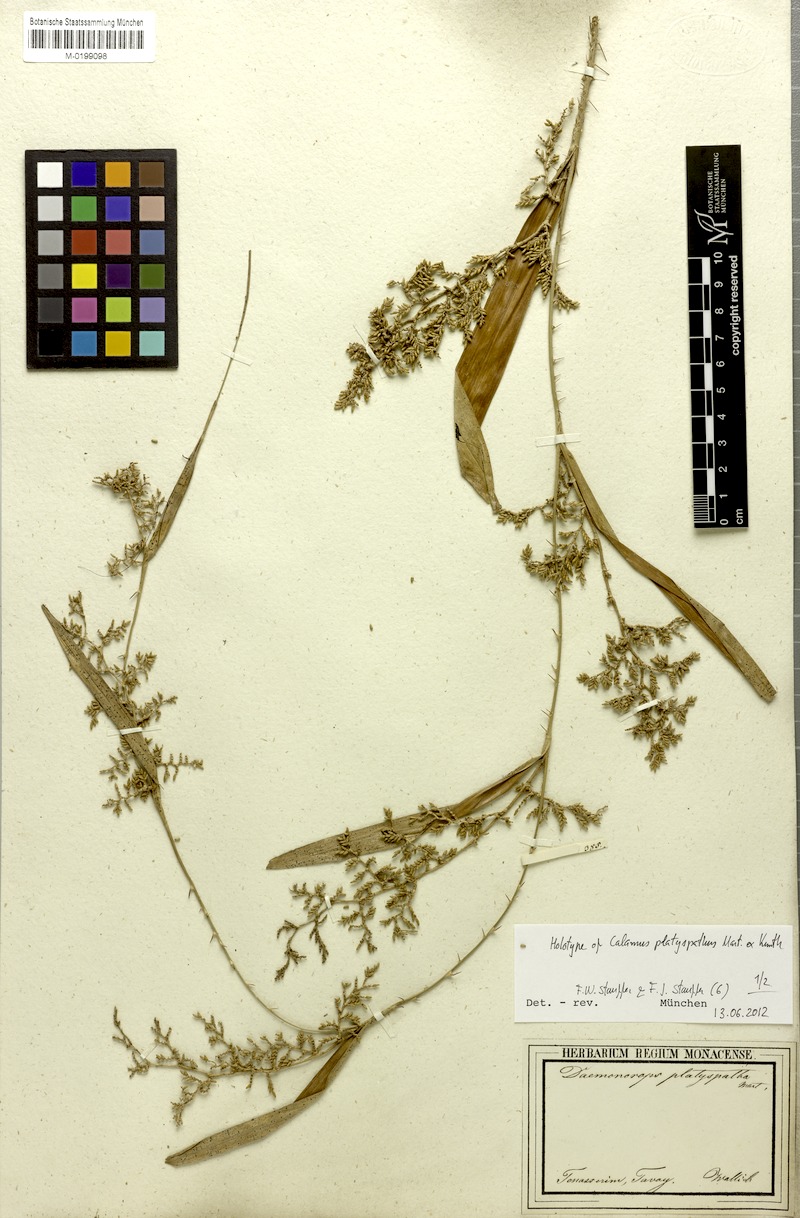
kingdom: Plantae
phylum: Tracheophyta
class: Liliopsida
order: Arecales
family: Arecaceae
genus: Calamus
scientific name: Calamus platyspathus
